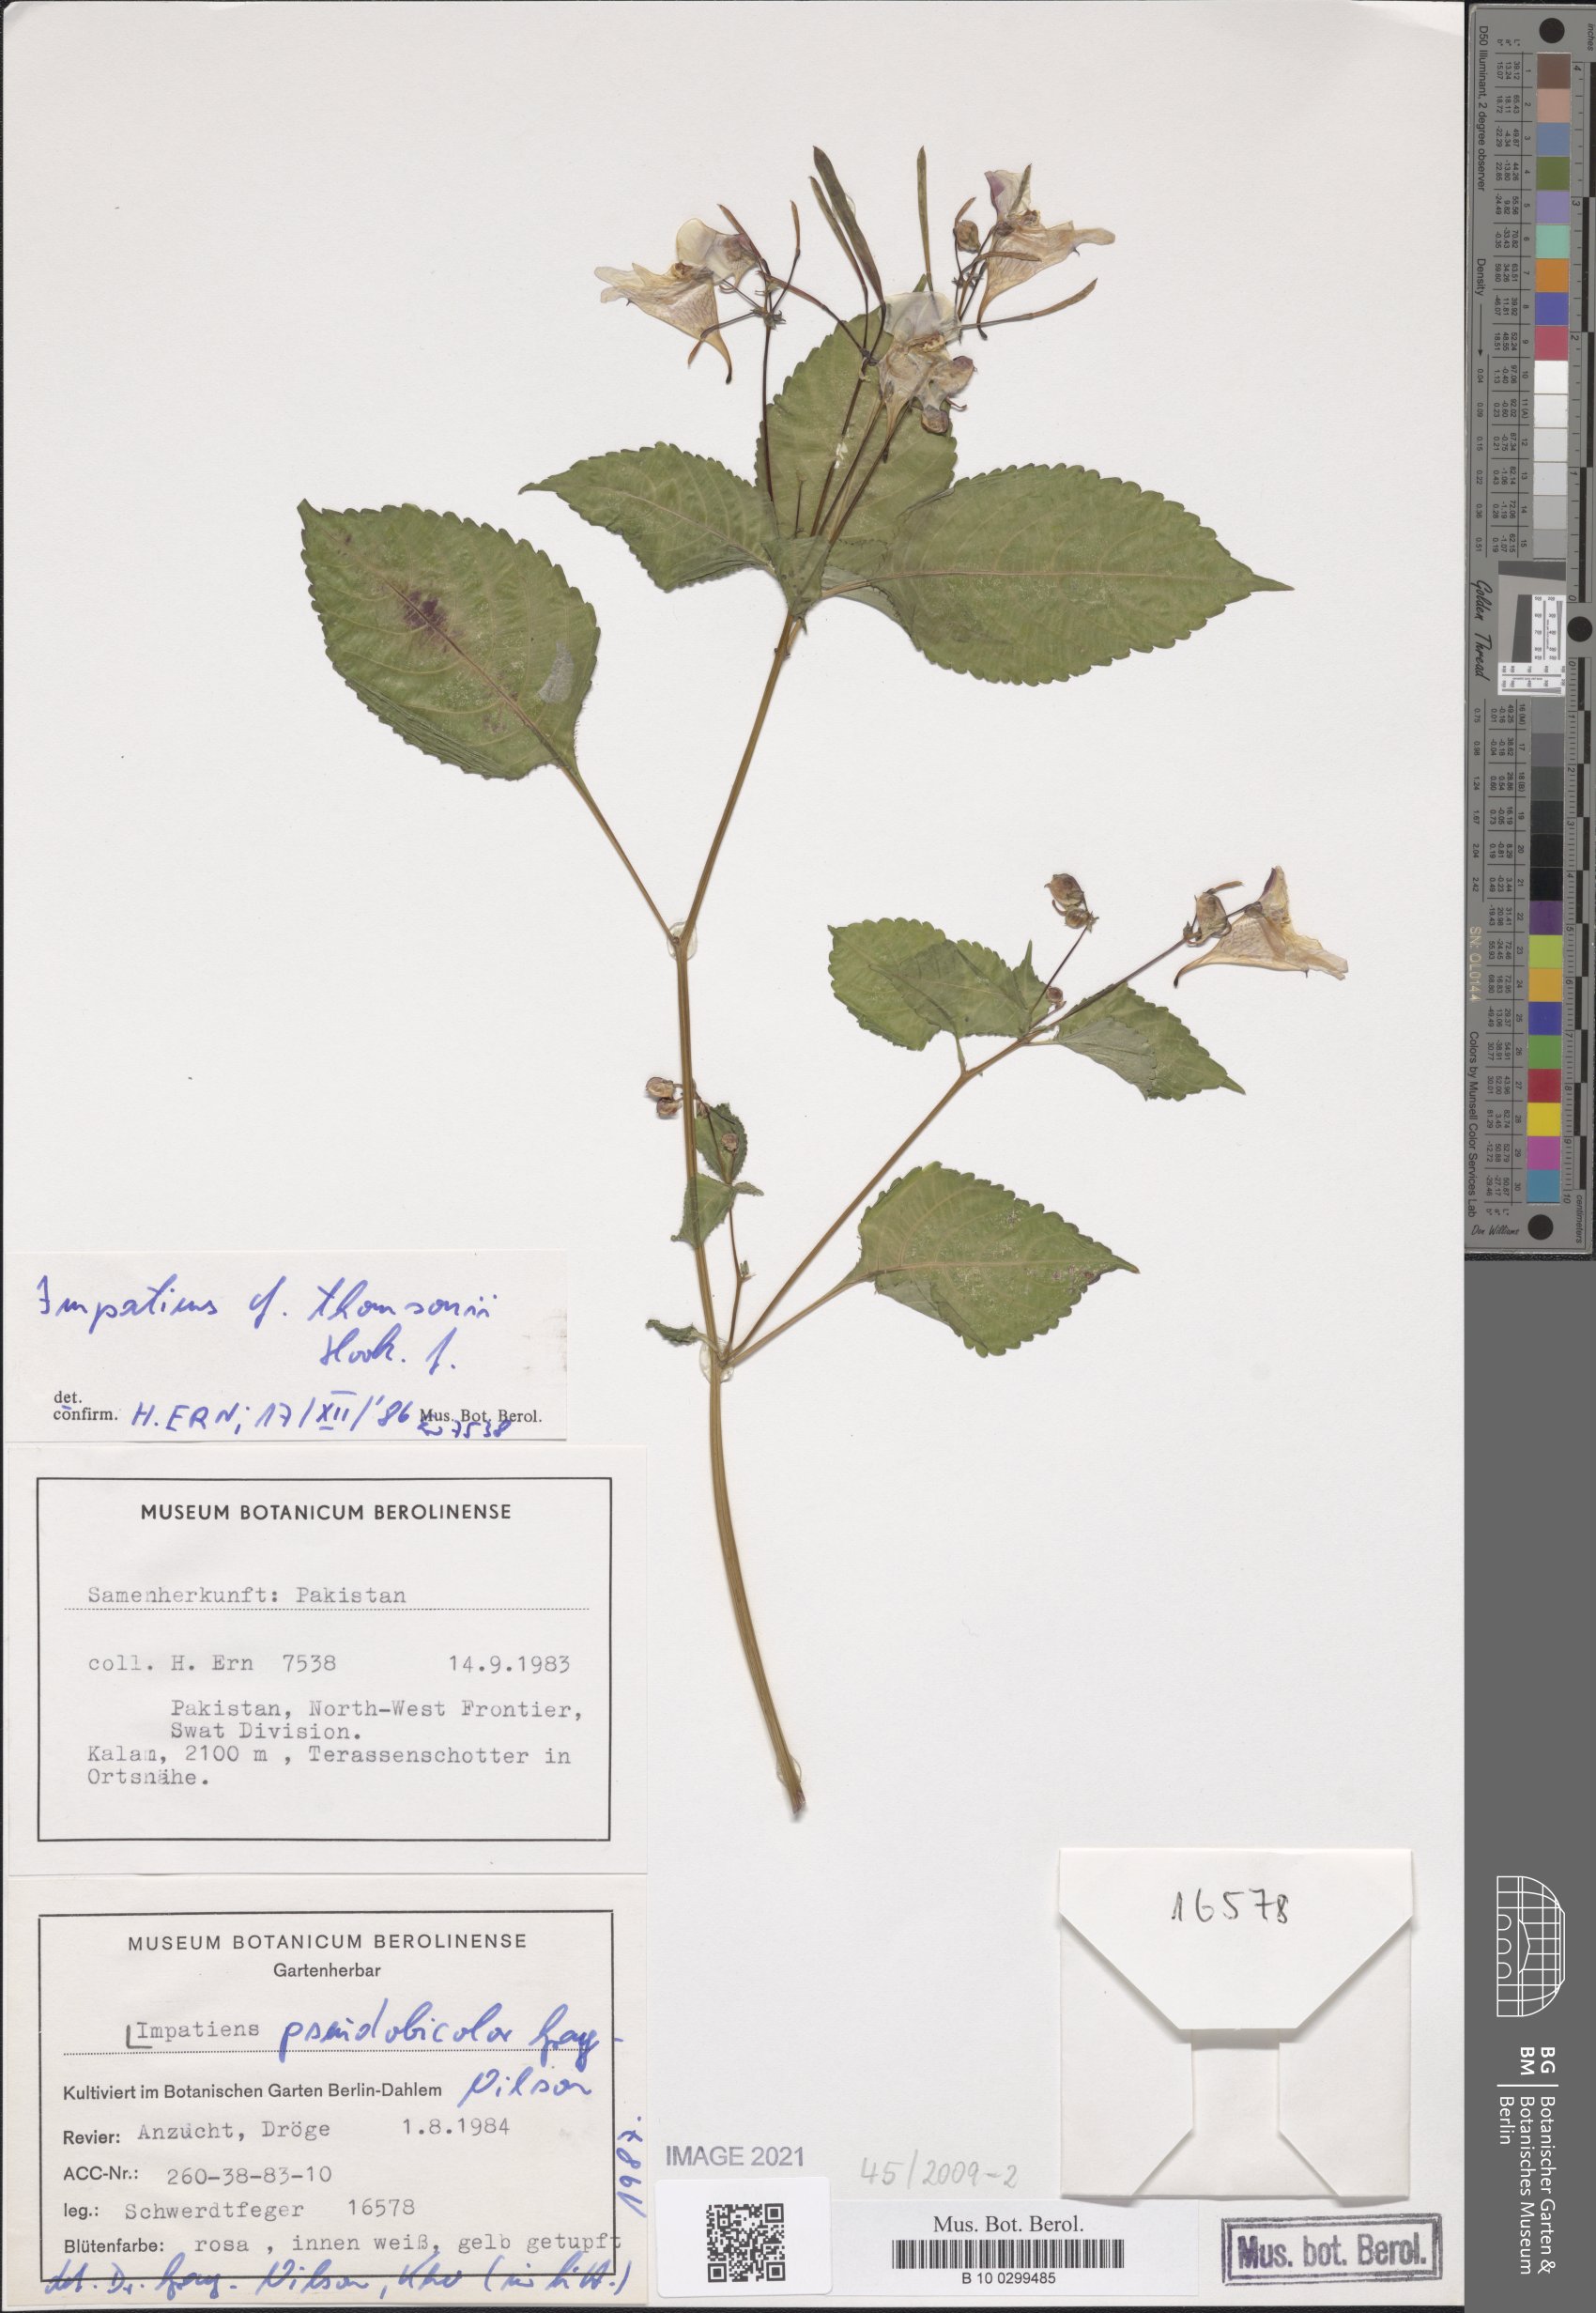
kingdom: Plantae
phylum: Tracheophyta
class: Magnoliopsida
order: Ericales
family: Balsaminaceae
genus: Impatiens
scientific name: Impatiens bicolor
